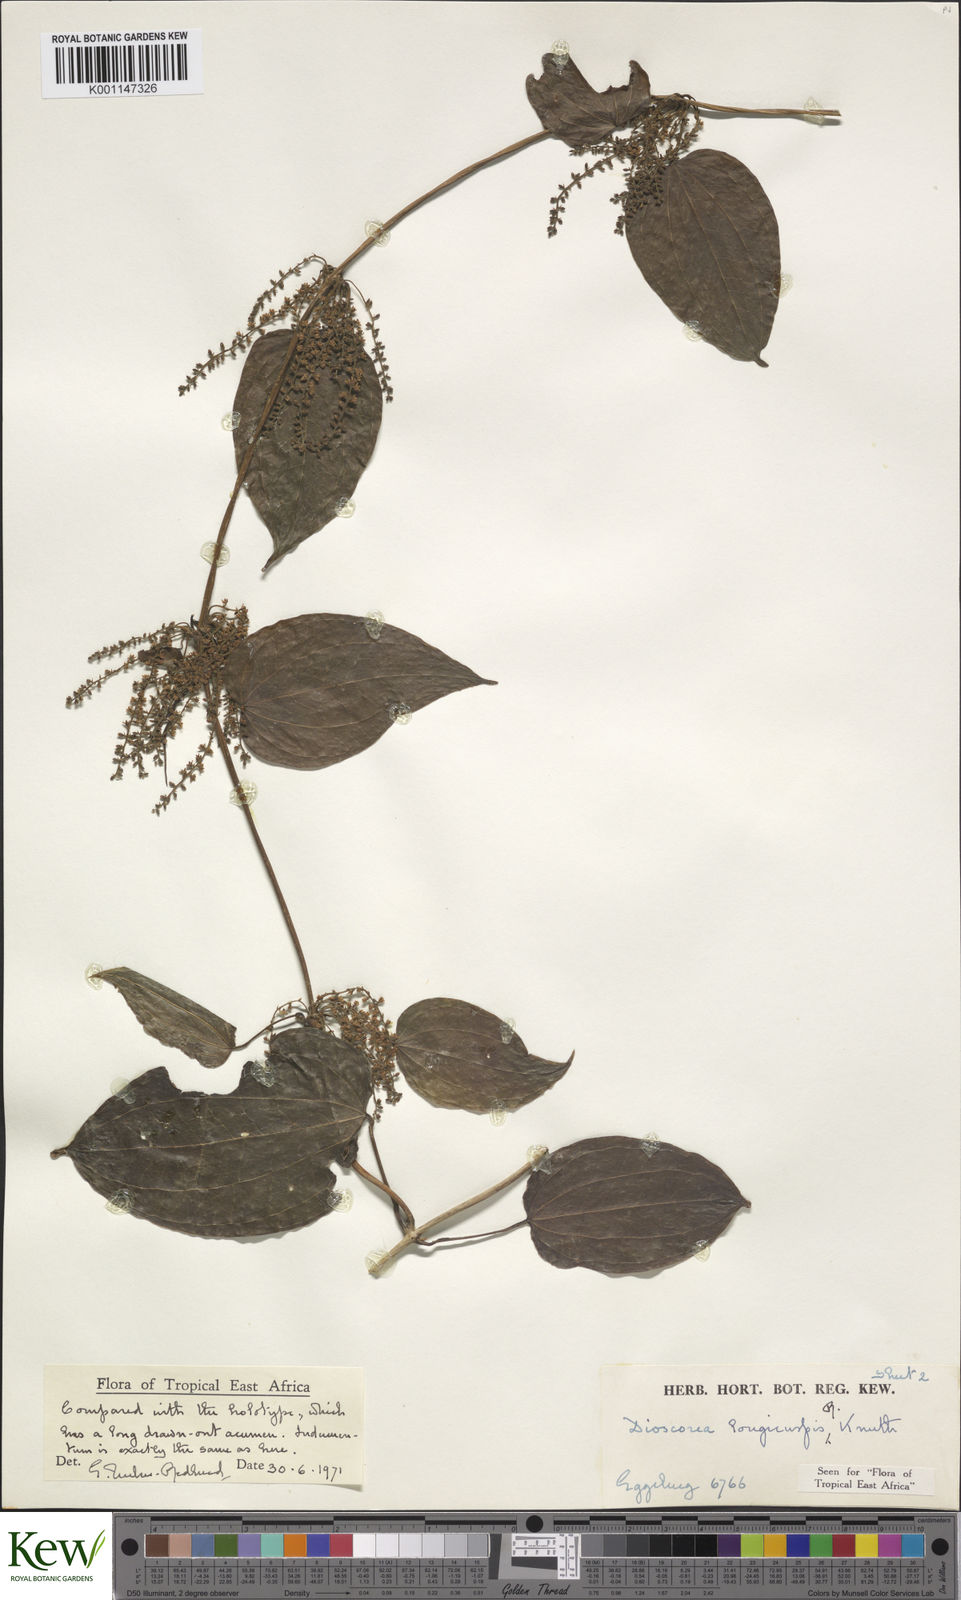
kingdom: Plantae
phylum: Tracheophyta
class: Liliopsida
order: Dioscoreales
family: Dioscoreaceae
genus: Dioscorea
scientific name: Dioscorea longicuspis
